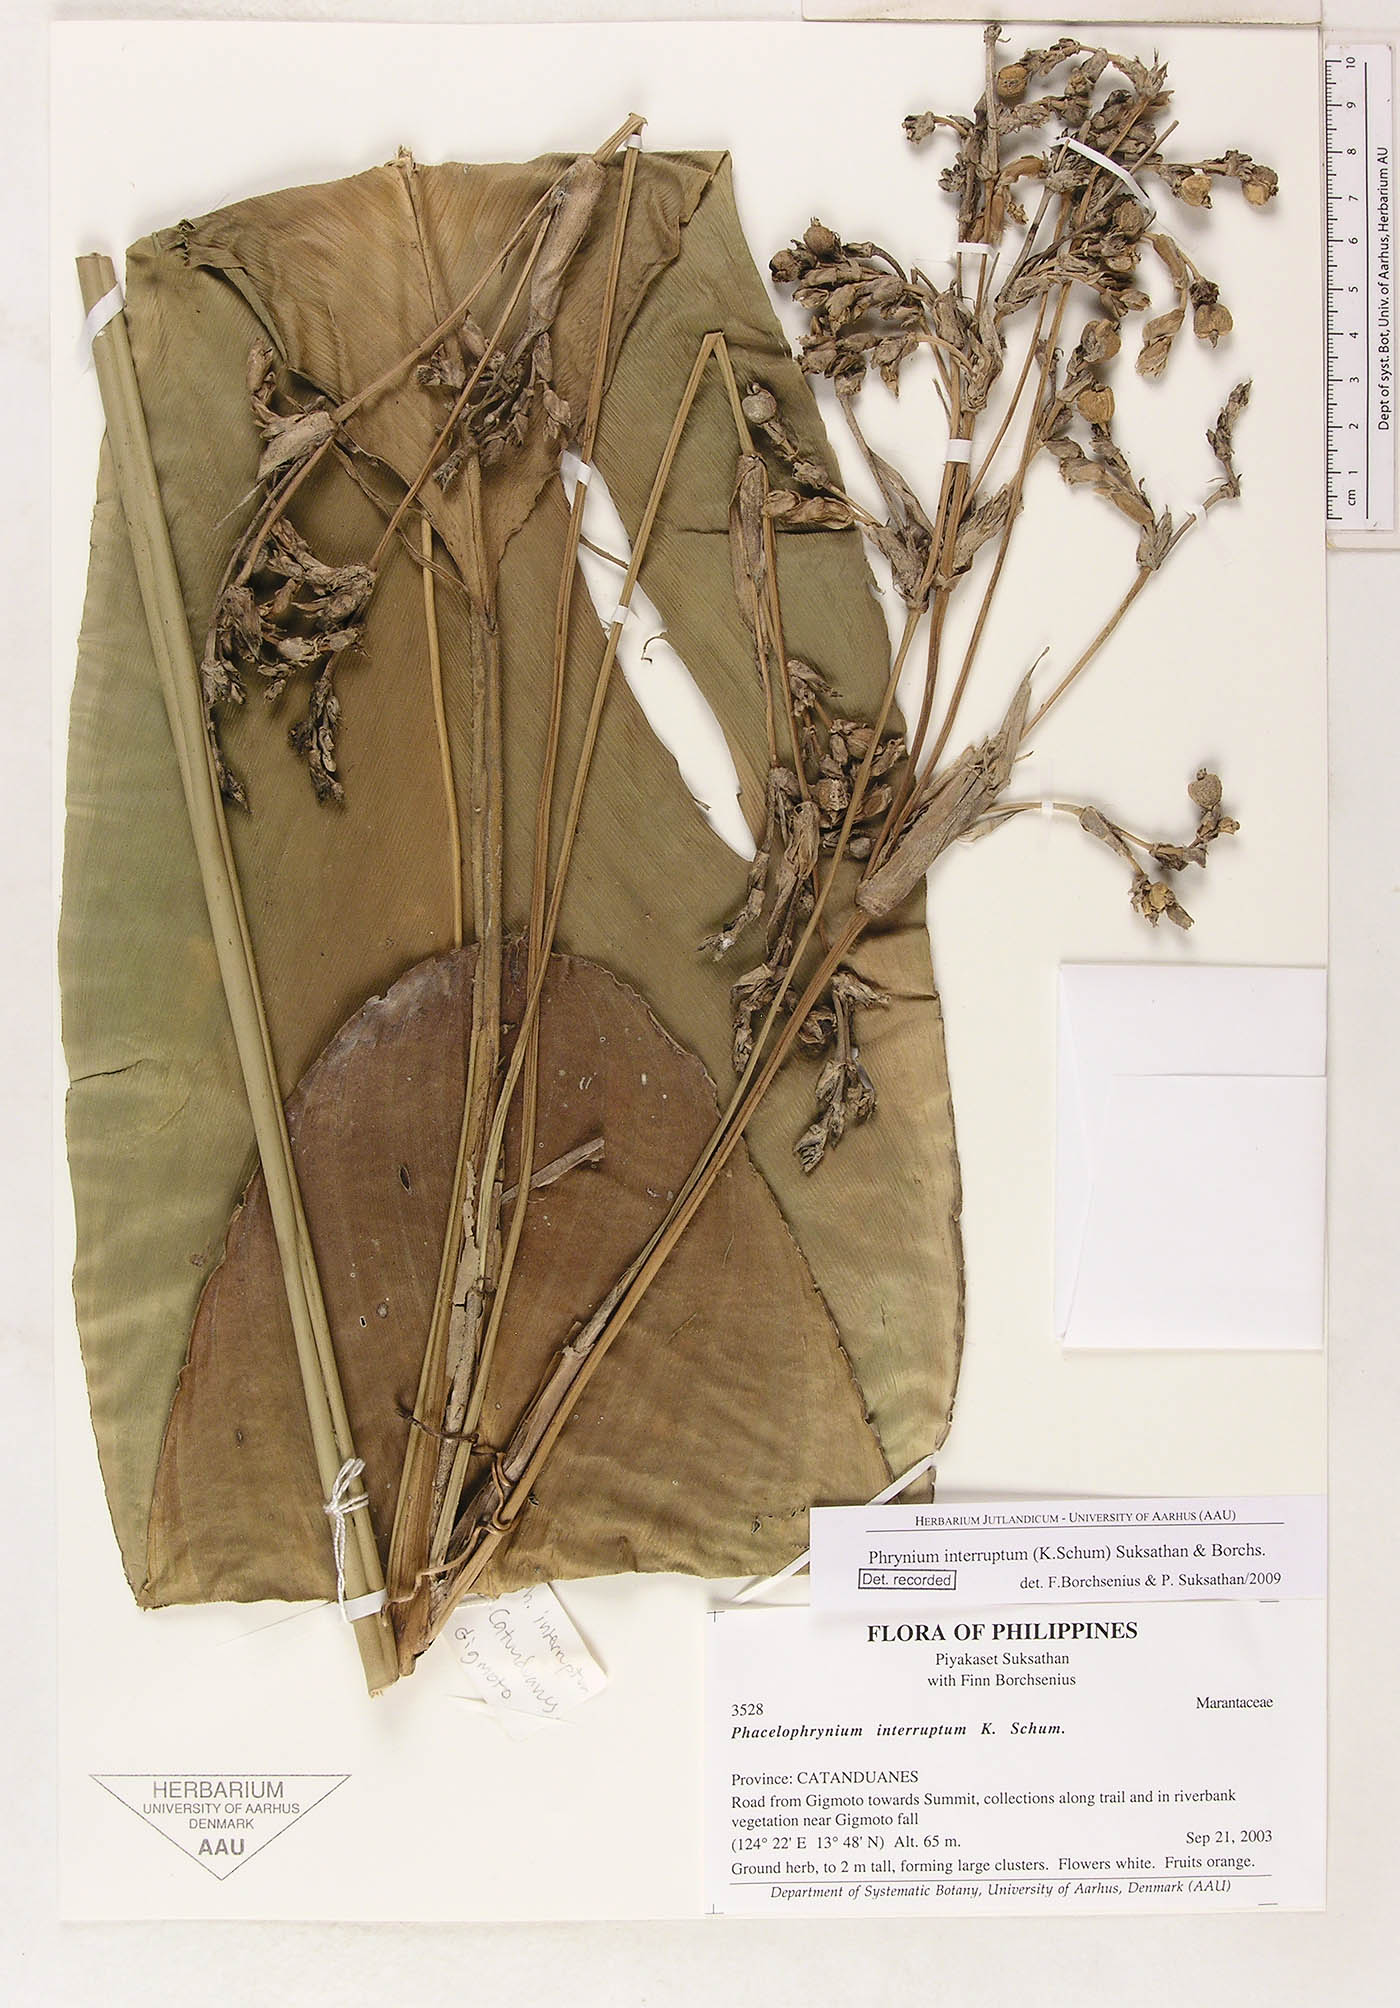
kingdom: Plantae
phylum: Tracheophyta
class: Liliopsida
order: Zingiberales
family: Marantaceae
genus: Phrynium
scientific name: Phrynium interruptum
